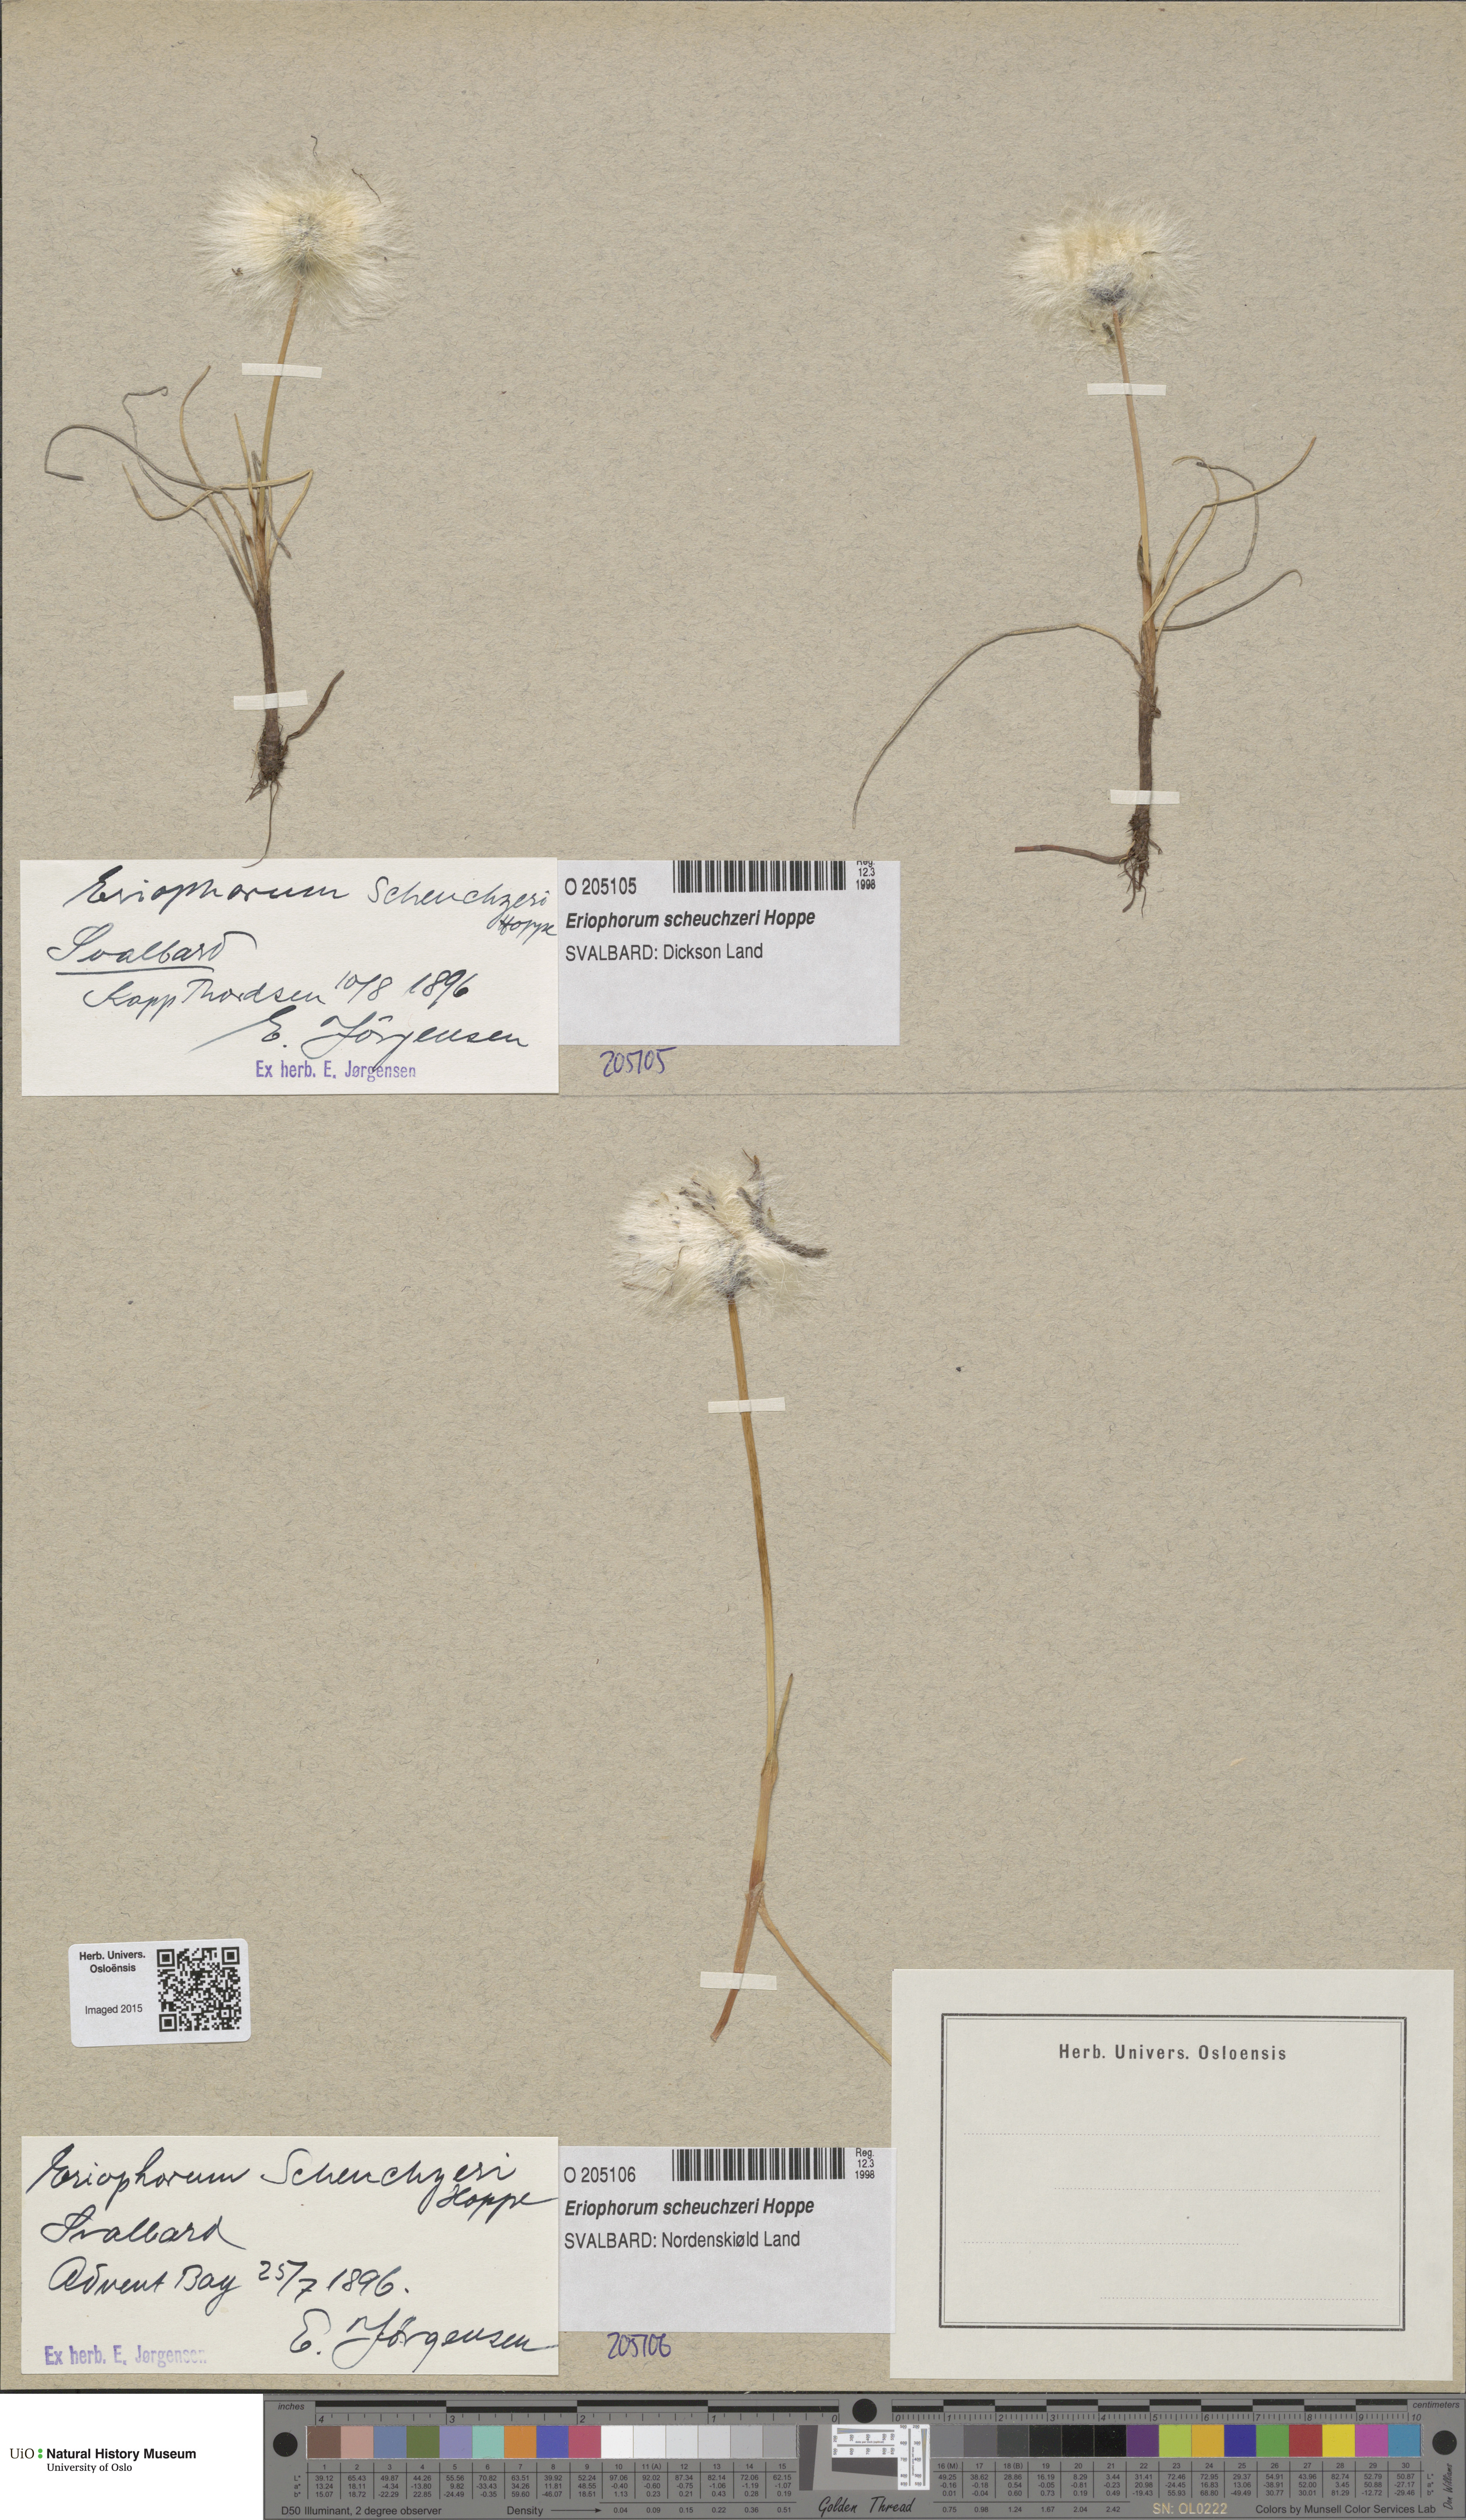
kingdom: Plantae
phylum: Tracheophyta
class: Liliopsida
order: Poales
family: Cyperaceae
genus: Eriophorum
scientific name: Eriophorum scheuchzeri
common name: Scheuchzer's cottongrass
